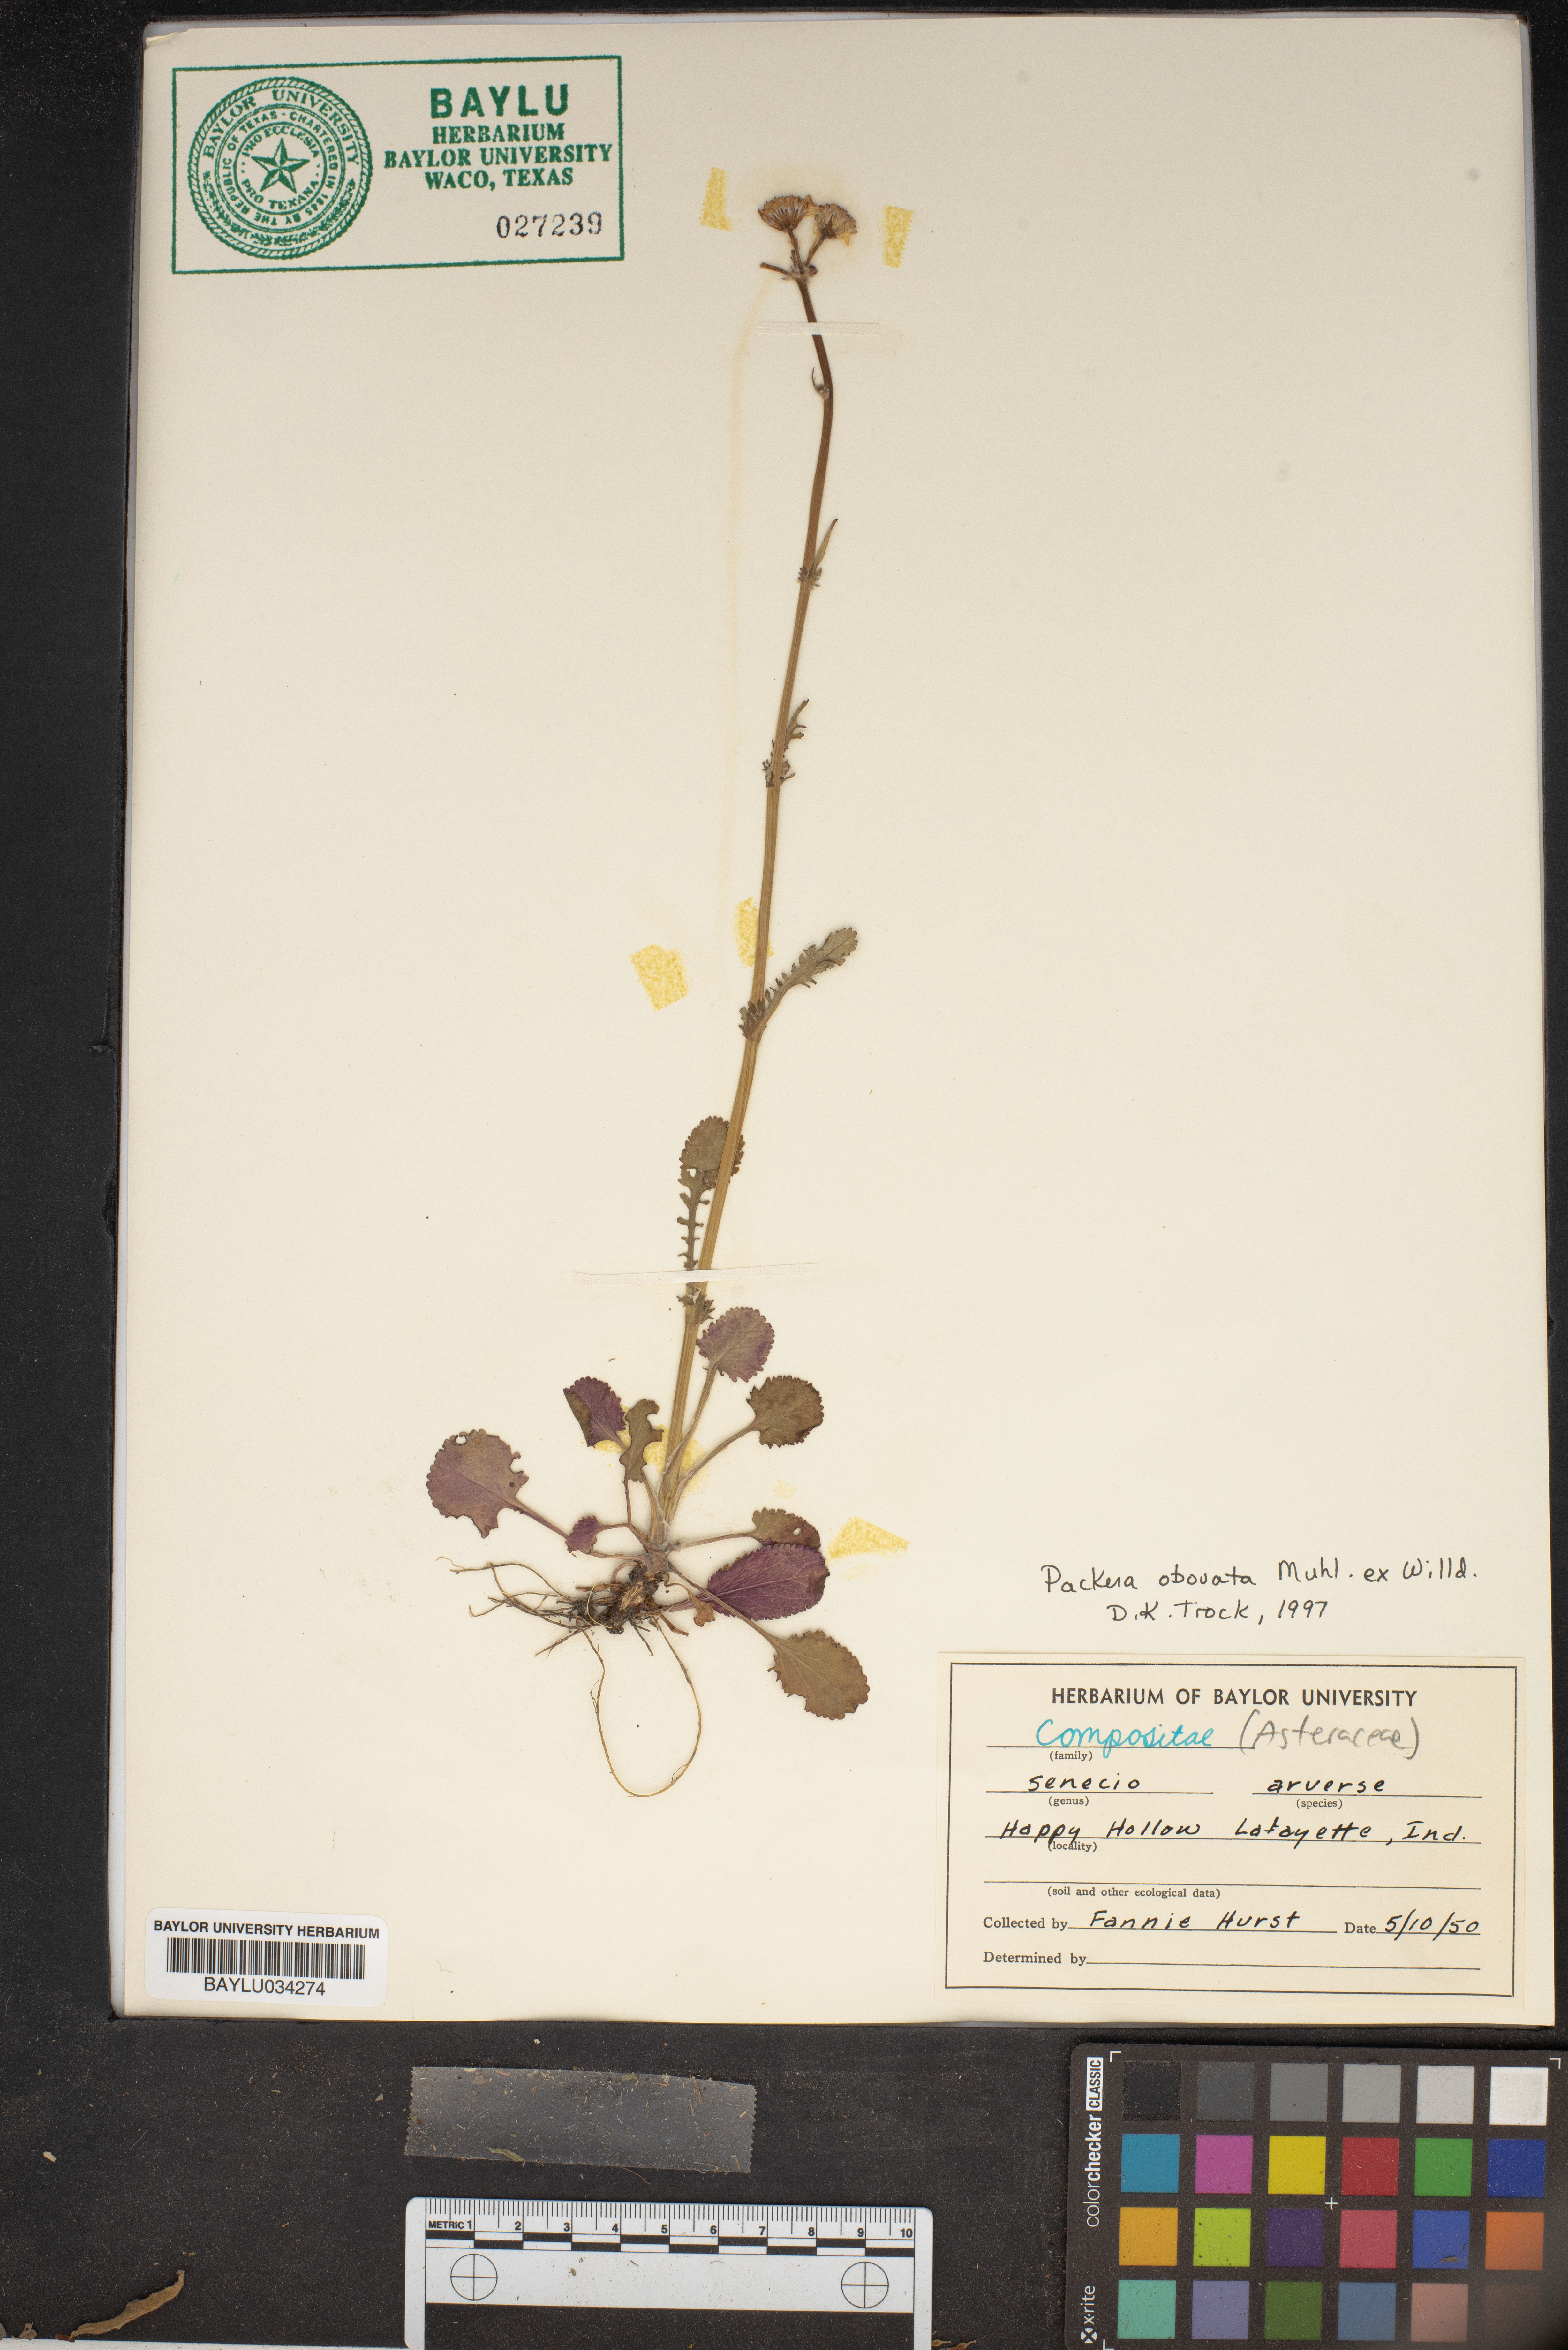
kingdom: Plantae
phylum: Tracheophyta
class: Magnoliopsida
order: Asterales
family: Asteraceae
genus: Packera
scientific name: Packera obovata
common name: Round-leaf ragwort
